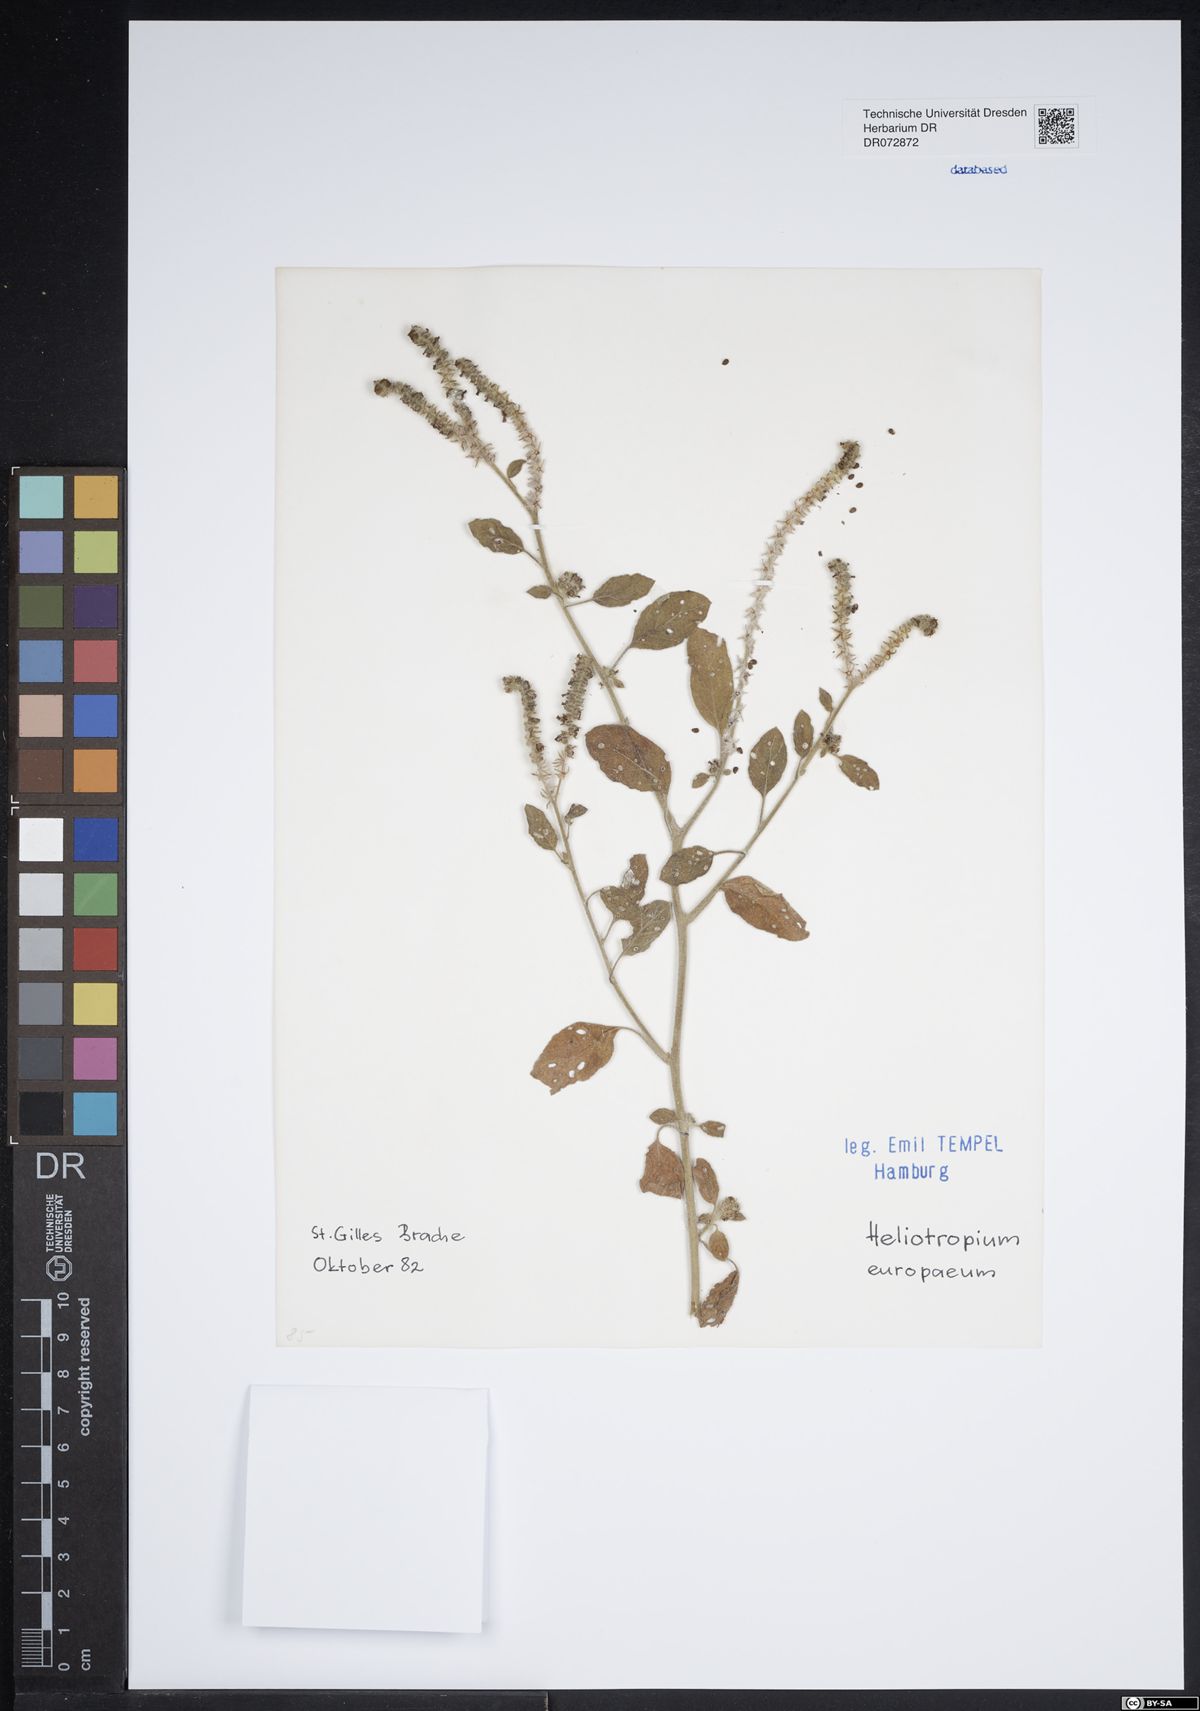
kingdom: Plantae
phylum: Tracheophyta
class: Magnoliopsida
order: Boraginales
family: Heliotropiaceae
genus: Heliotropium
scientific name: Heliotropium europaeum
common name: European heliotrope
